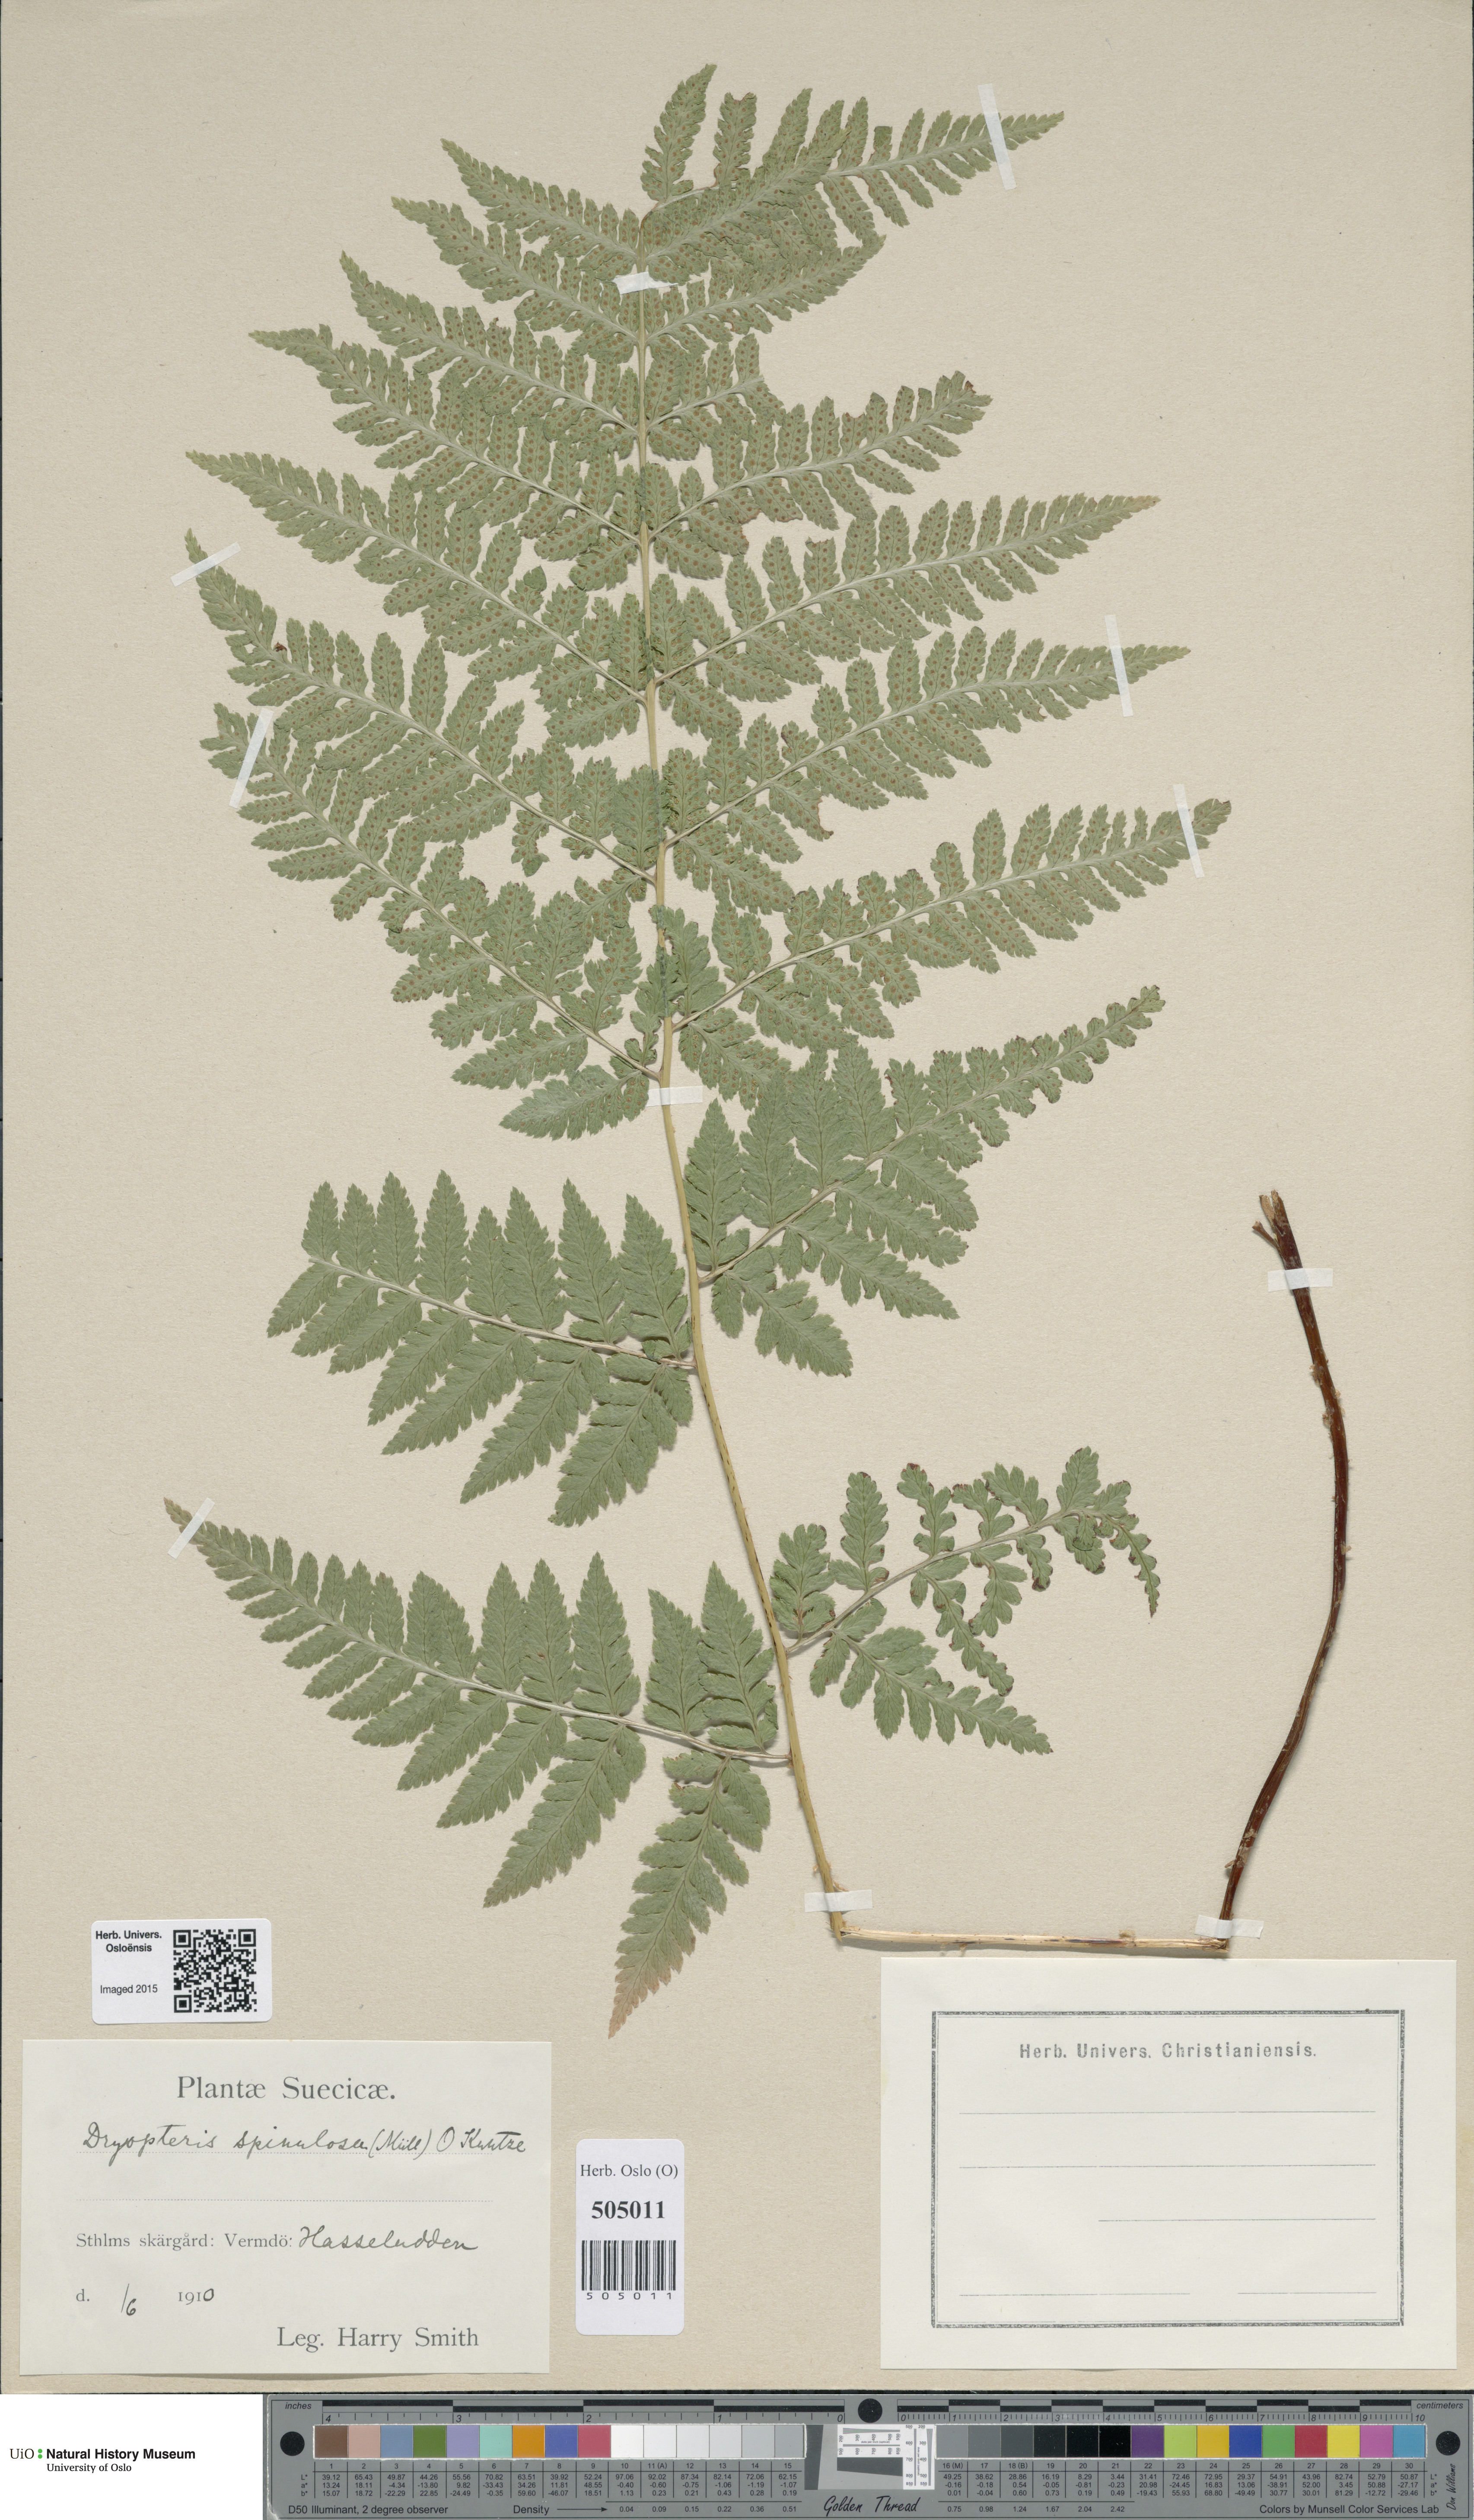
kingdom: Plantae
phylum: Tracheophyta
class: Polypodiopsida
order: Polypodiales
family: Dryopteridaceae
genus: Dryopteris
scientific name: Dryopteris carthusiana
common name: Narrow buckler-fern
